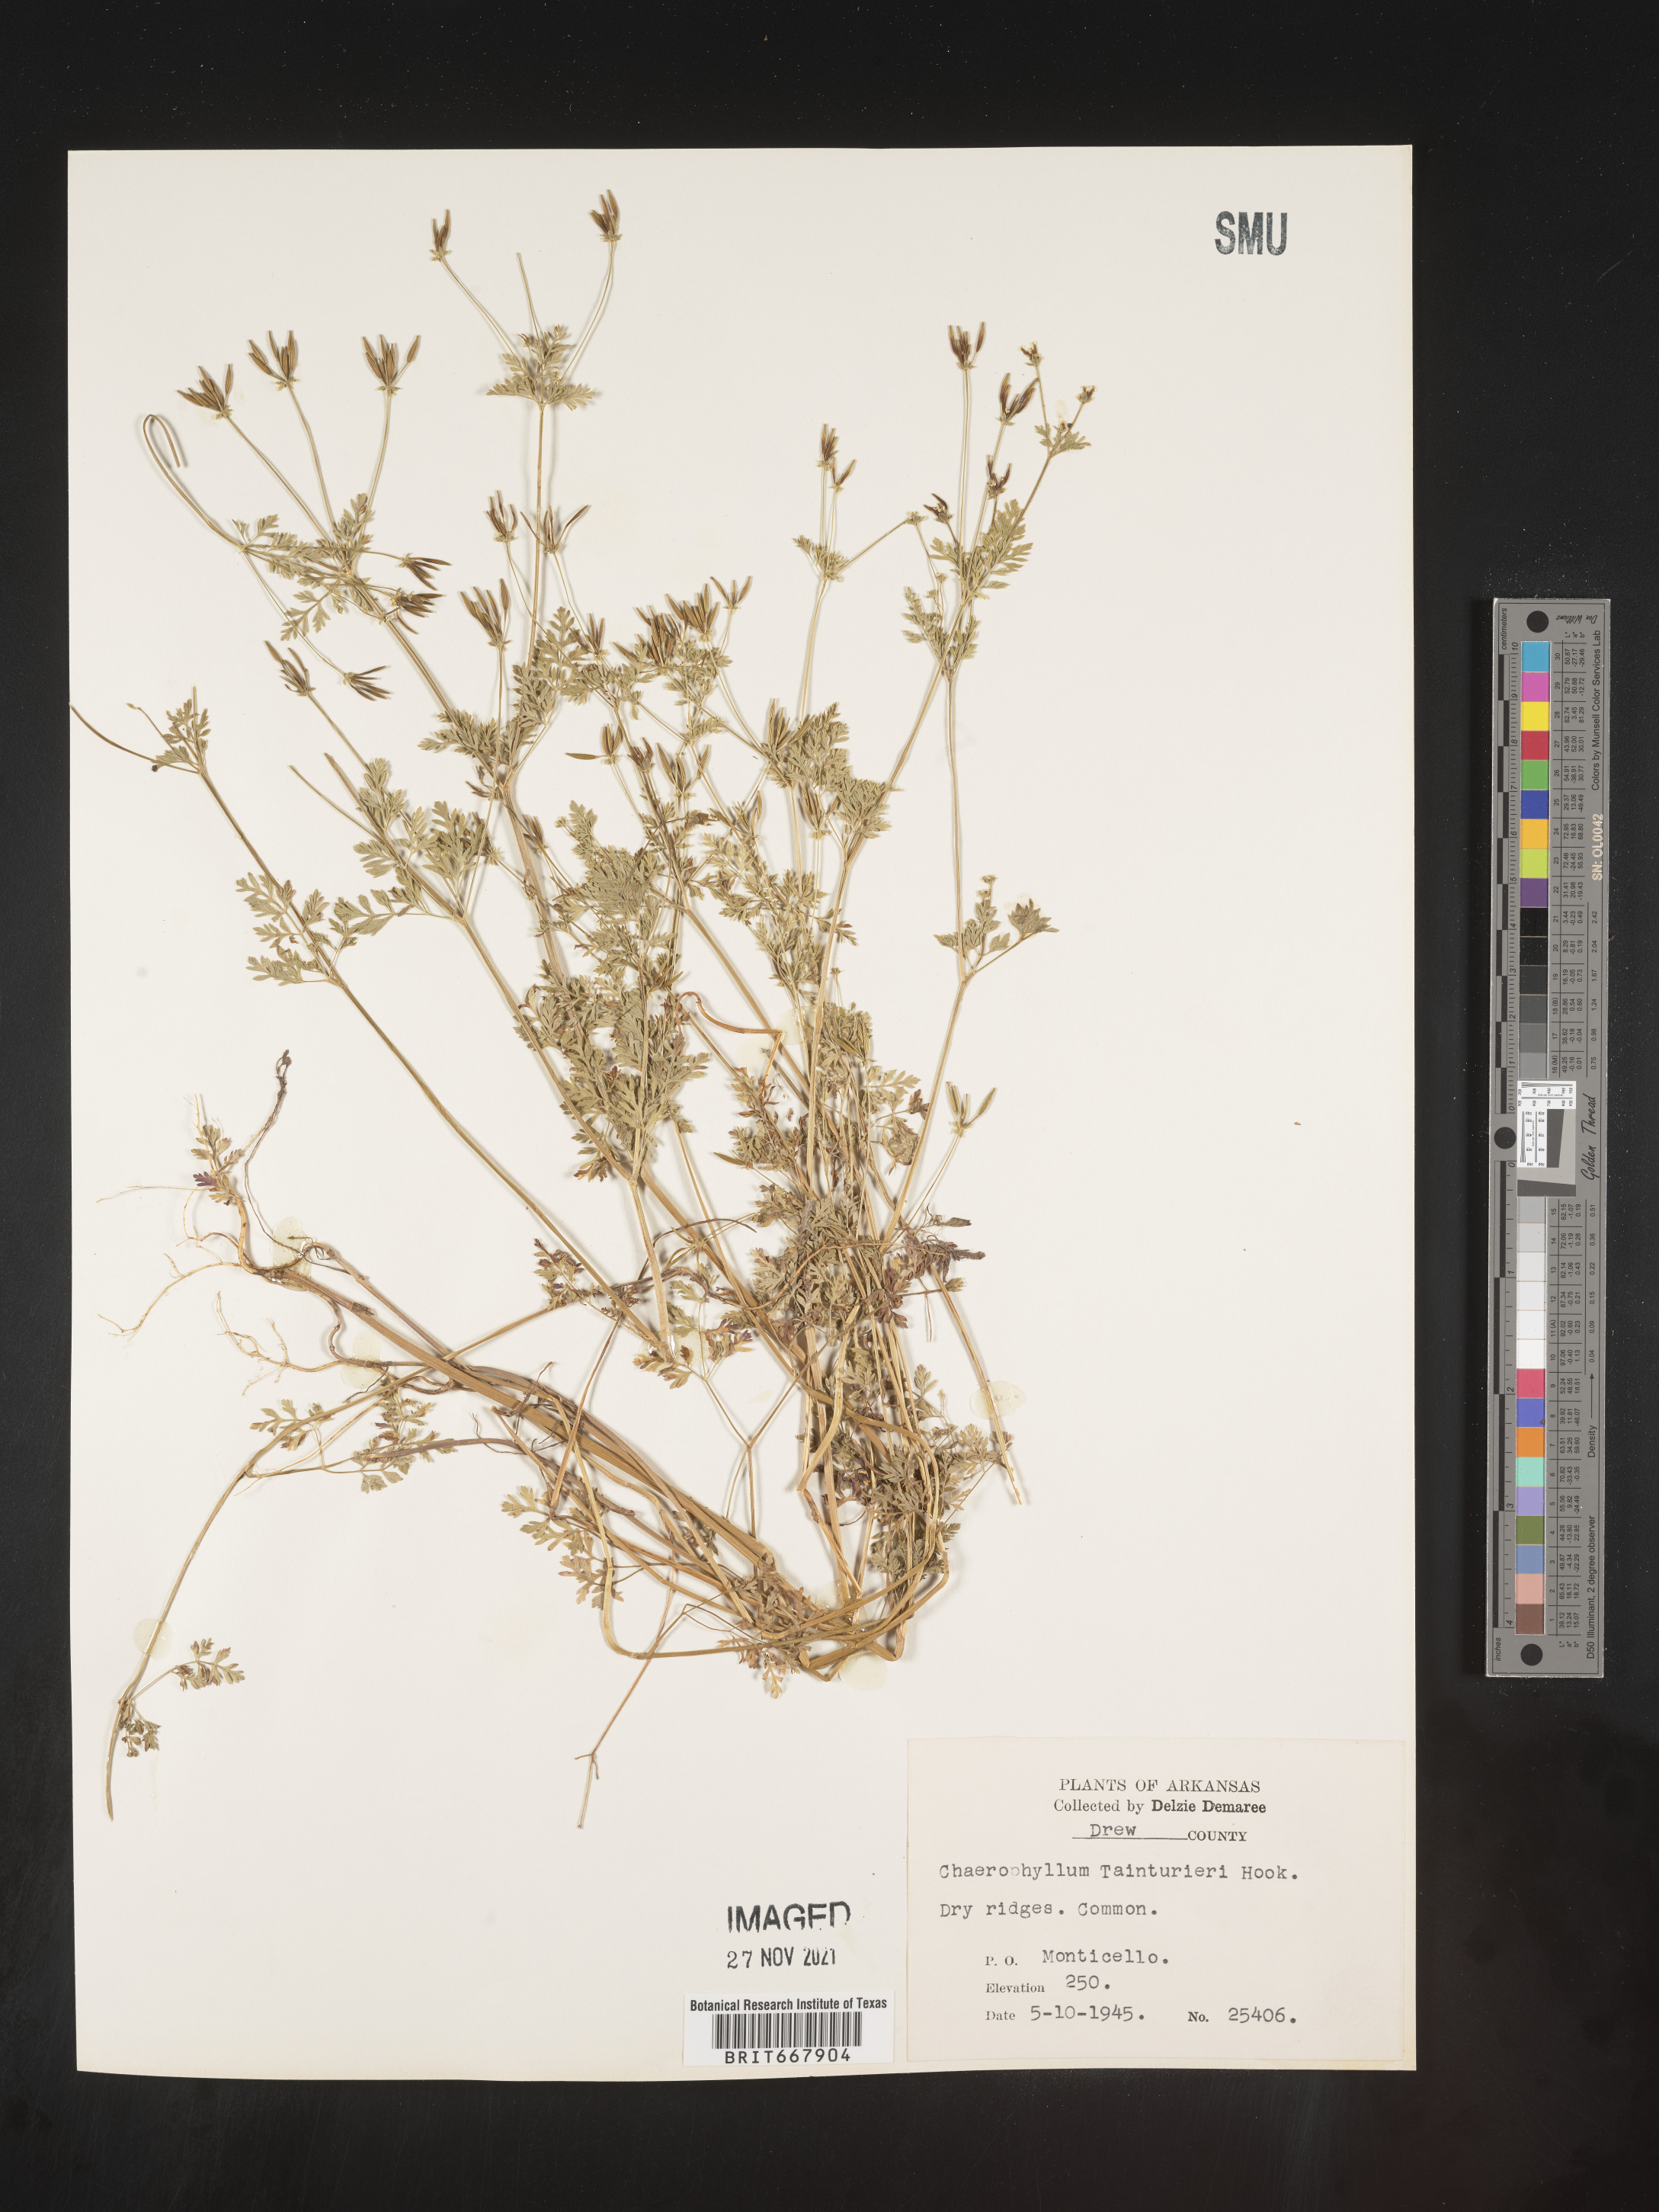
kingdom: Plantae
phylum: Tracheophyta
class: Magnoliopsida
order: Apiales
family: Apiaceae
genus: Chaerophyllum
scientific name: Chaerophyllum tainturieri
